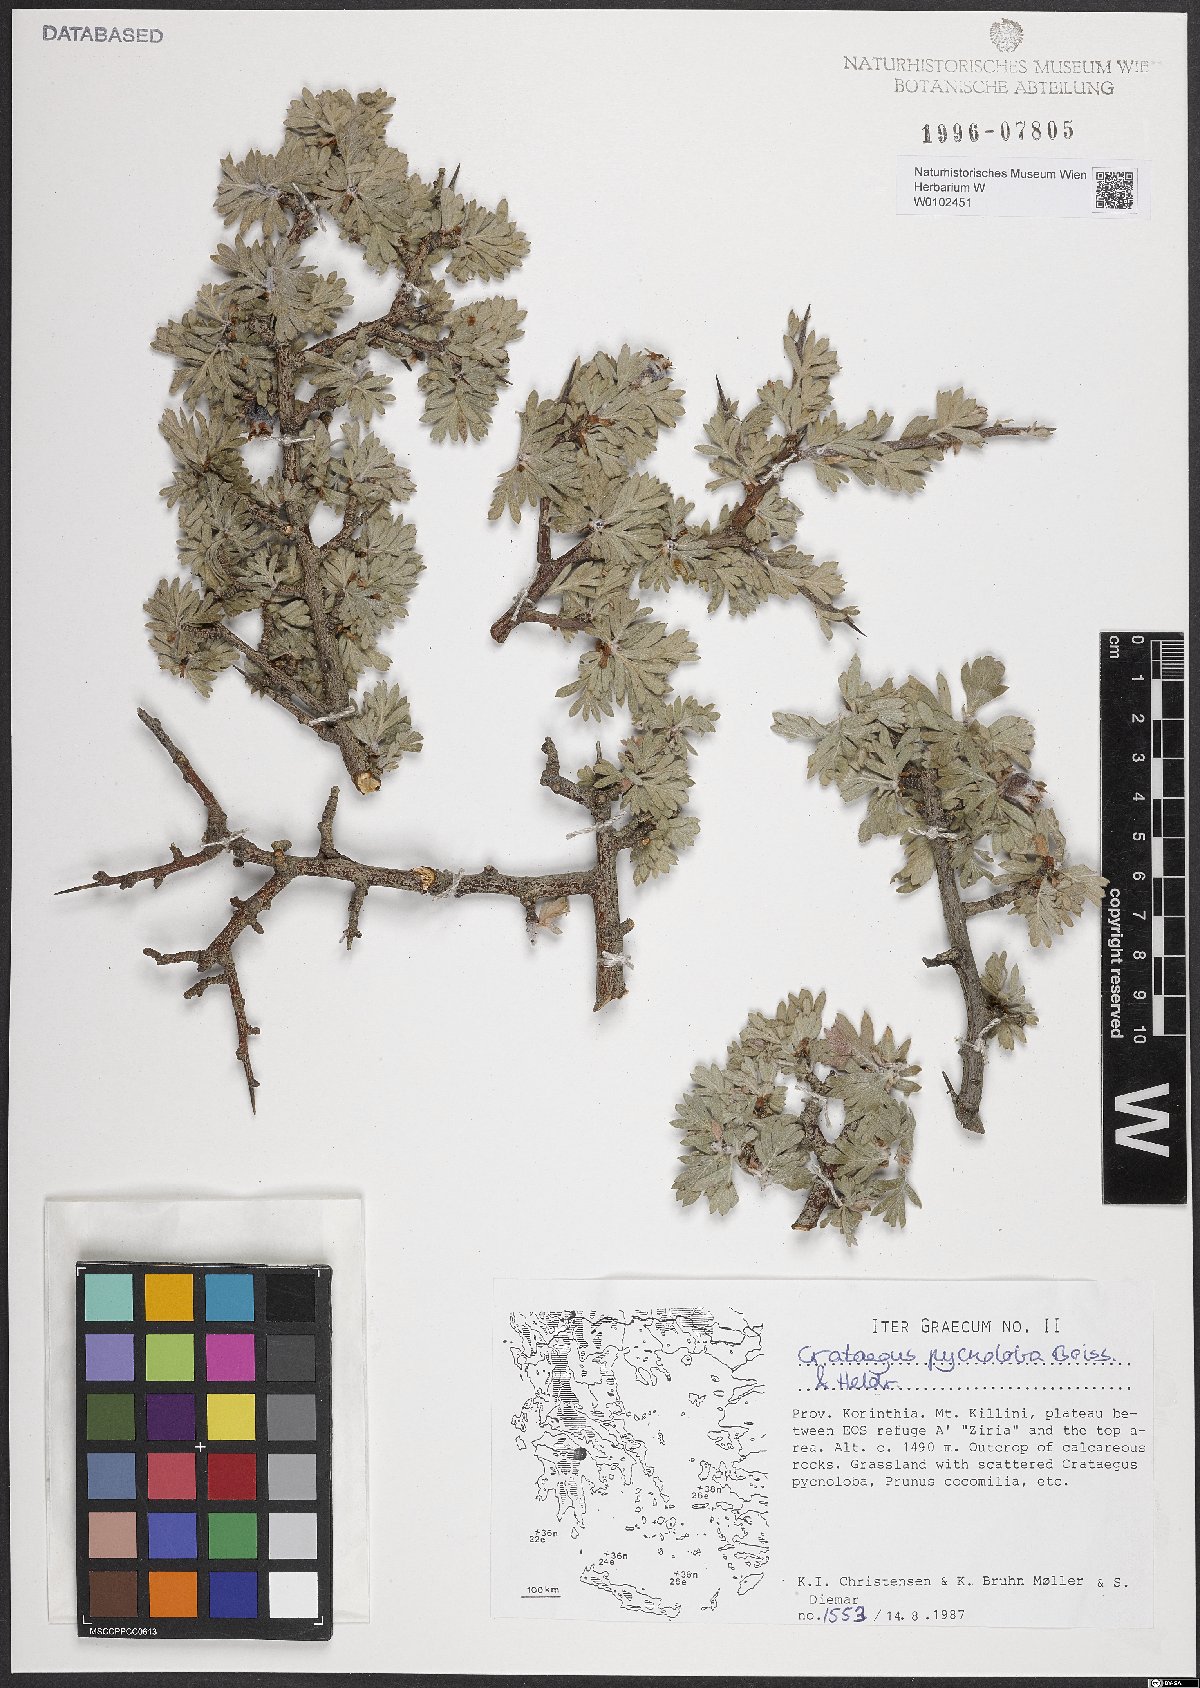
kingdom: Plantae
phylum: Tracheophyta
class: Magnoliopsida
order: Rosales
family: Rosaceae
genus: Crataegus
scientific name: Crataegus pycnoloba
